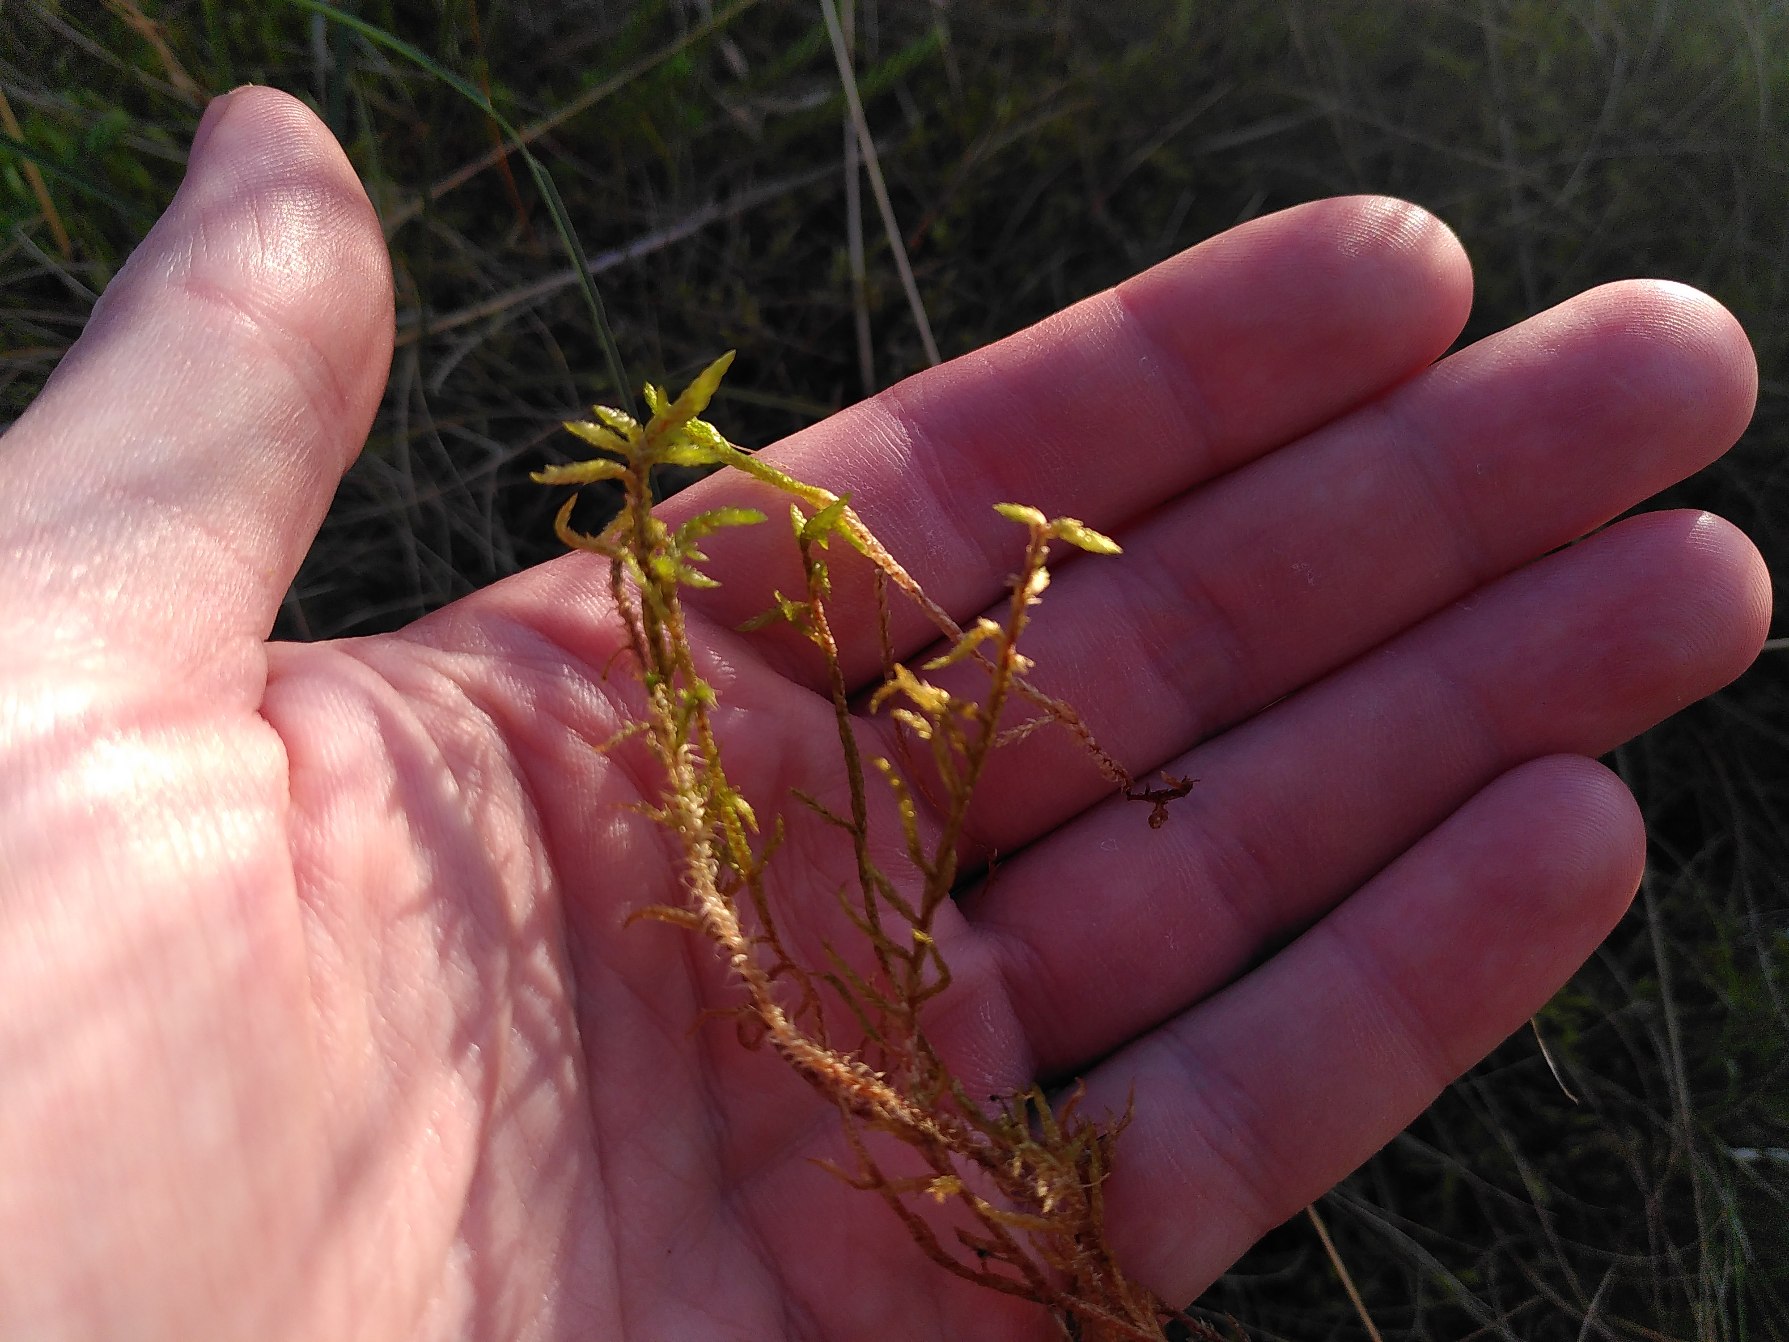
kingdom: Plantae
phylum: Bryophyta
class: Bryopsida
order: Hypnales
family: Hylocomiaceae
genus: Pleurozium
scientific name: Pleurozium schreberi
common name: Trind fyrremos
